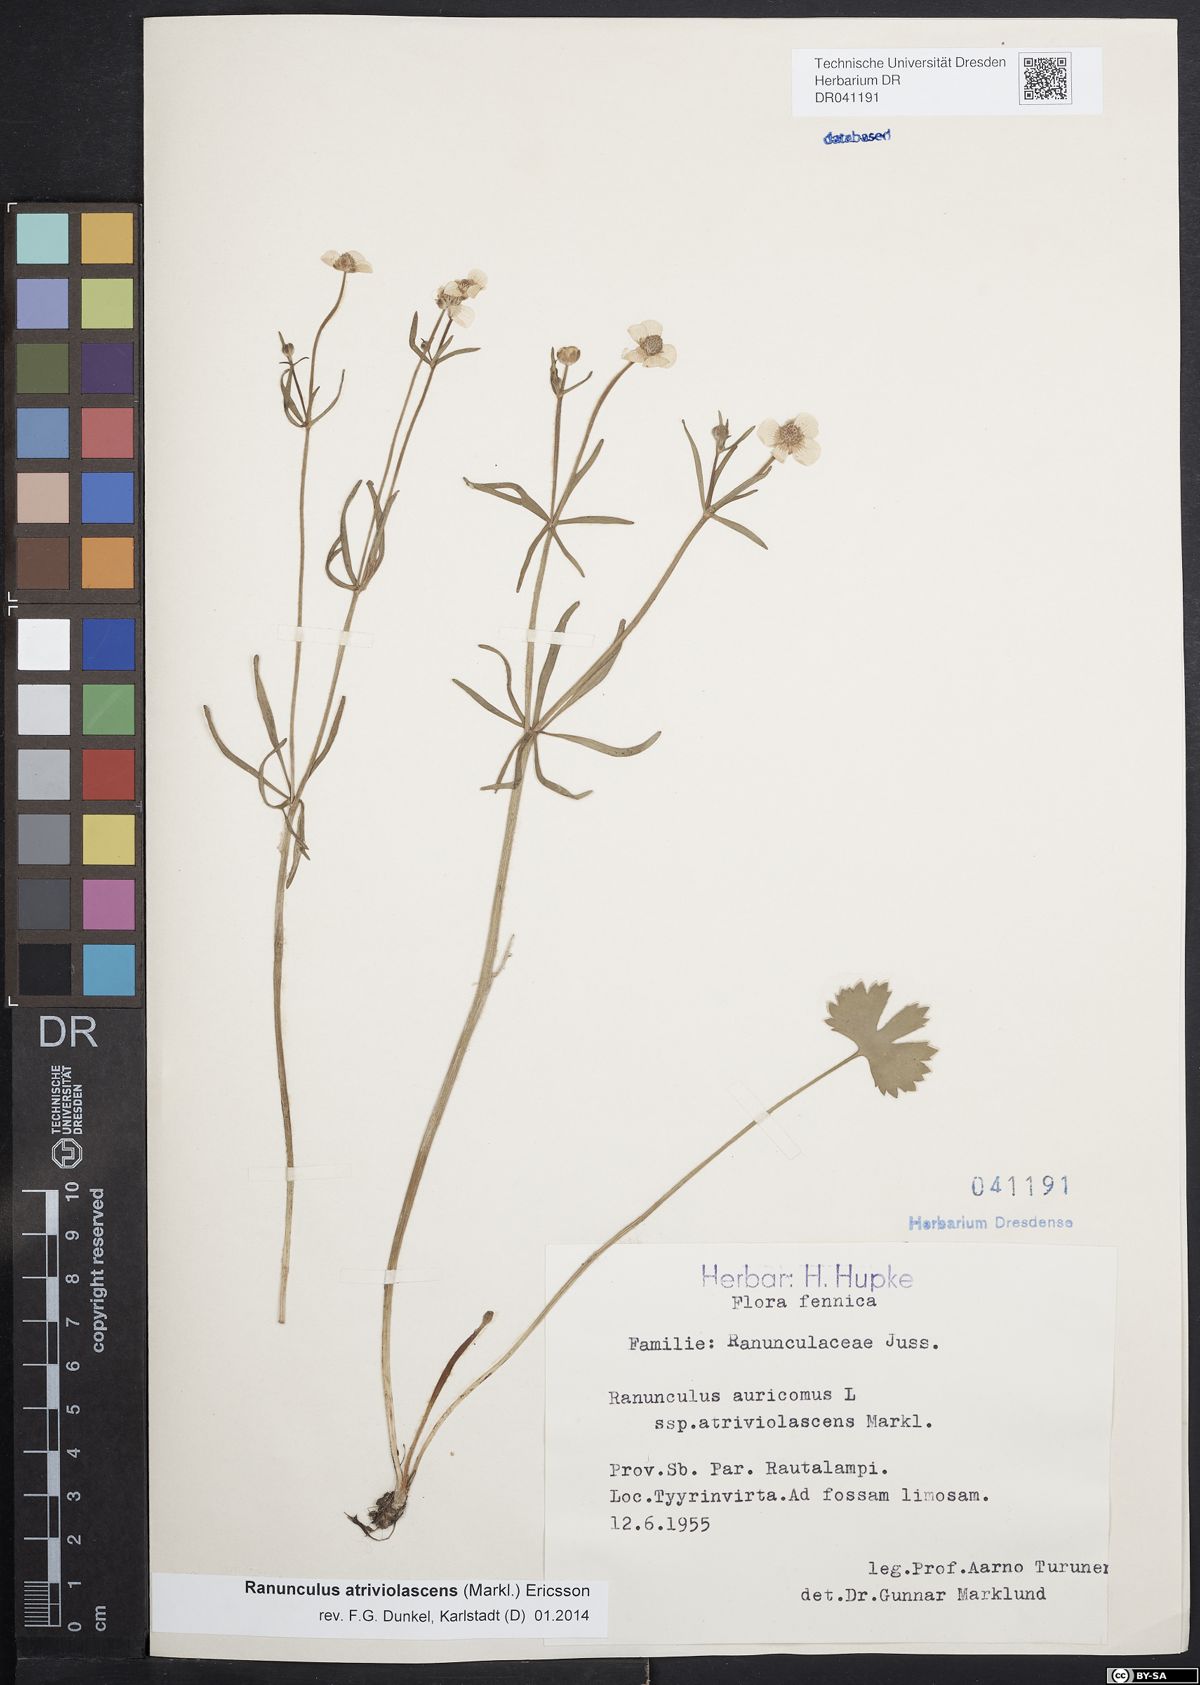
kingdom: Plantae
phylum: Tracheophyta
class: Magnoliopsida
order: Ranunculales
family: Ranunculaceae
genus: Ranunculus
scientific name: Ranunculus atriviolascens
